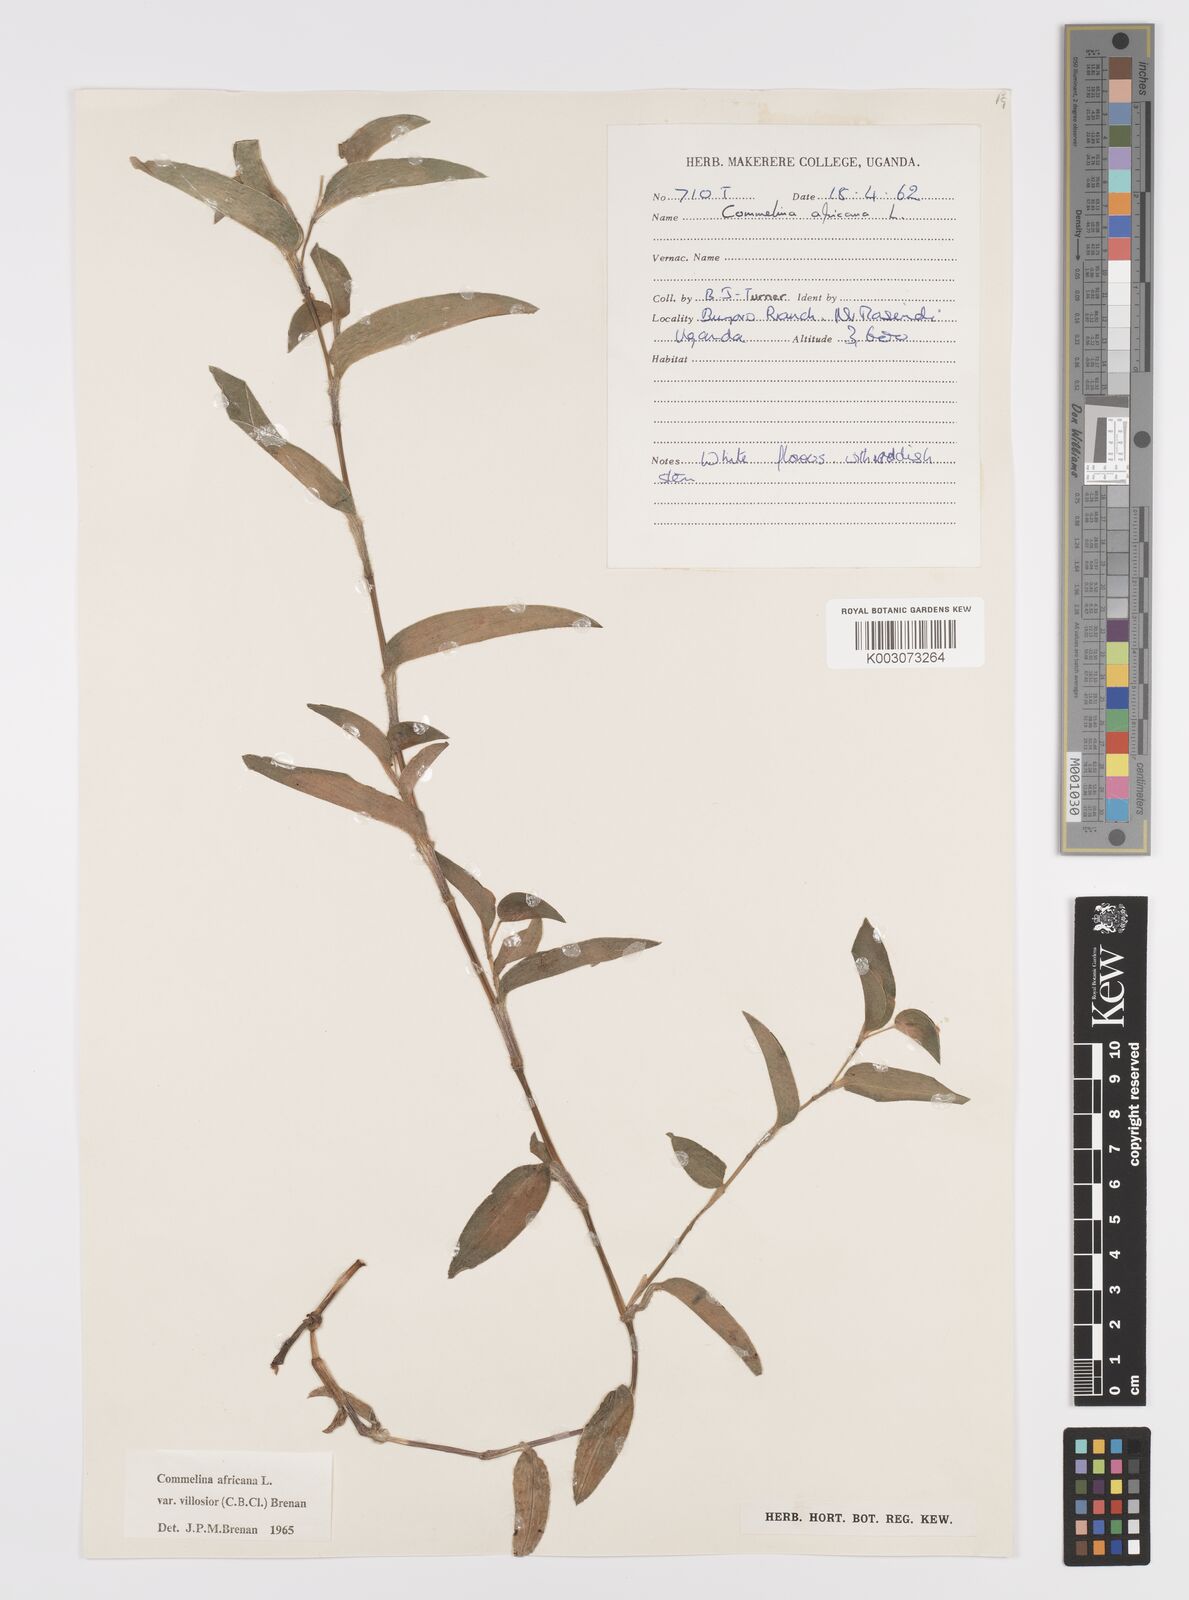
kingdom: Plantae
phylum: Tracheophyta
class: Liliopsida
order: Commelinales
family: Commelinaceae
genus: Commelina
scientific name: Commelina africana
